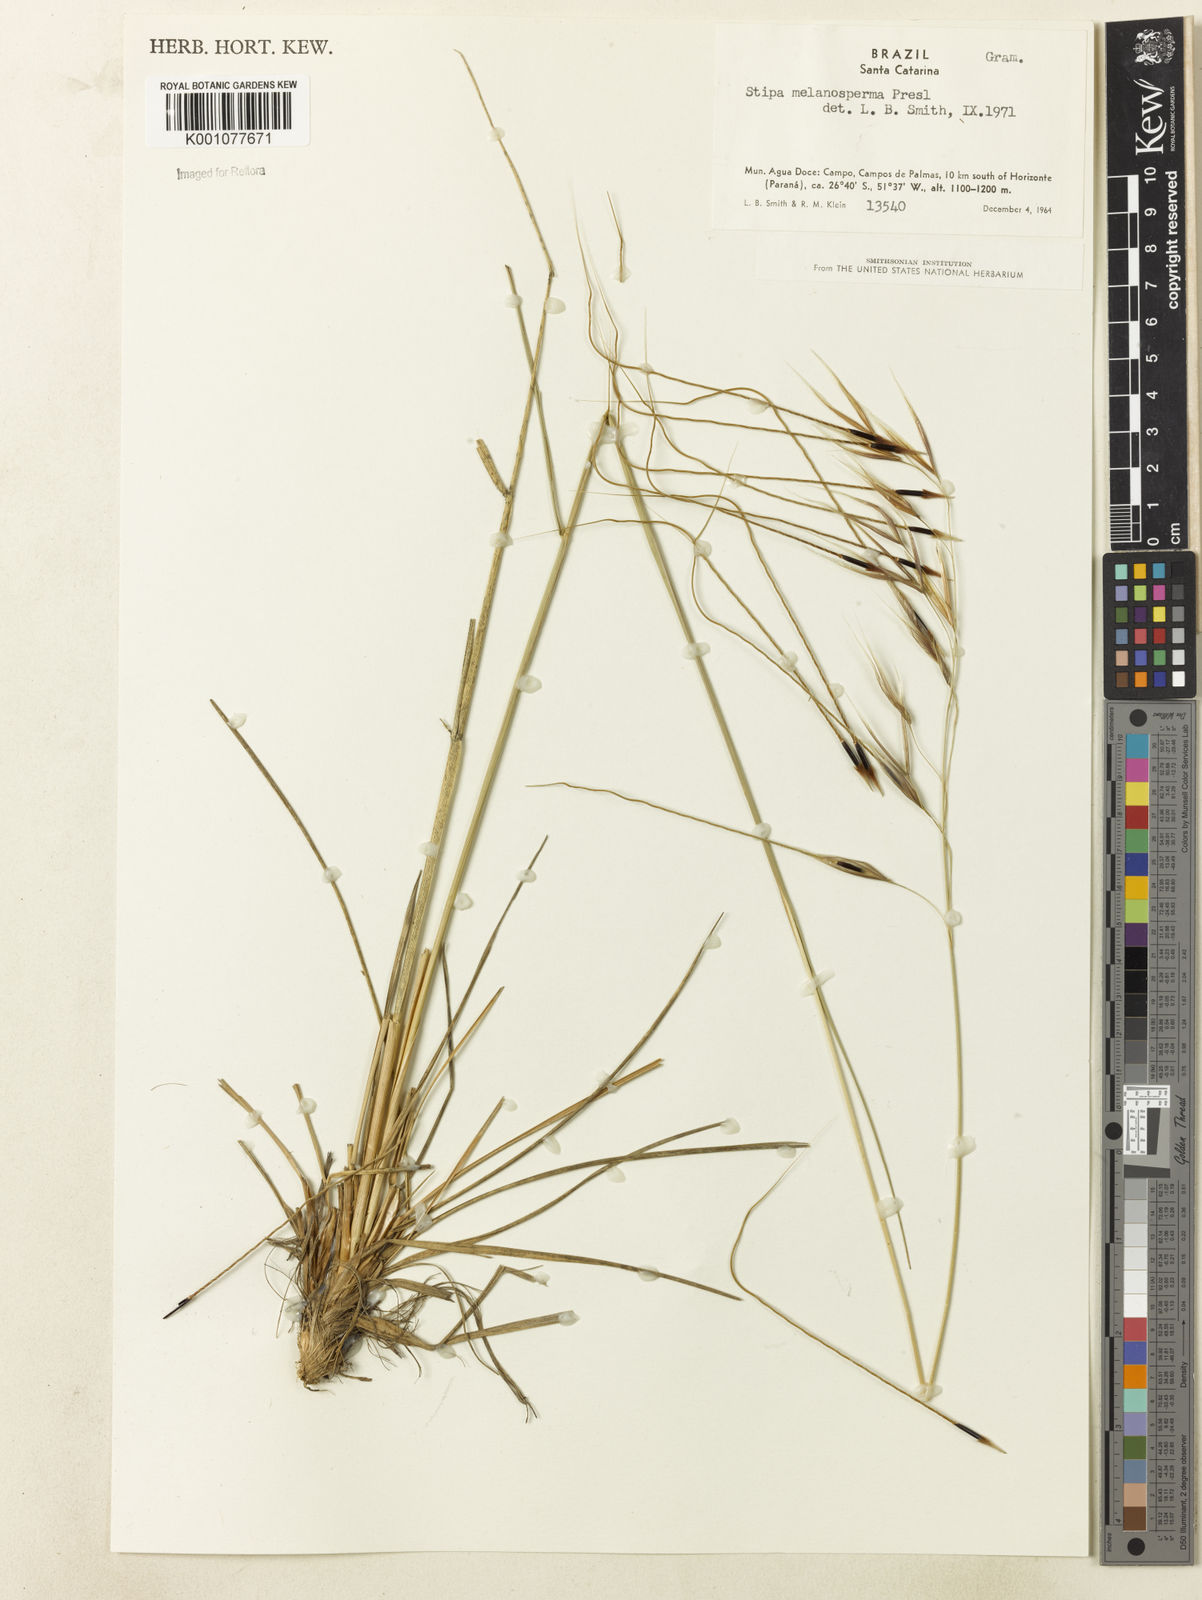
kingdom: Plantae
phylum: Tracheophyta
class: Liliopsida
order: Poales
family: Poaceae
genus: Nassella
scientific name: Nassella melanosperma
